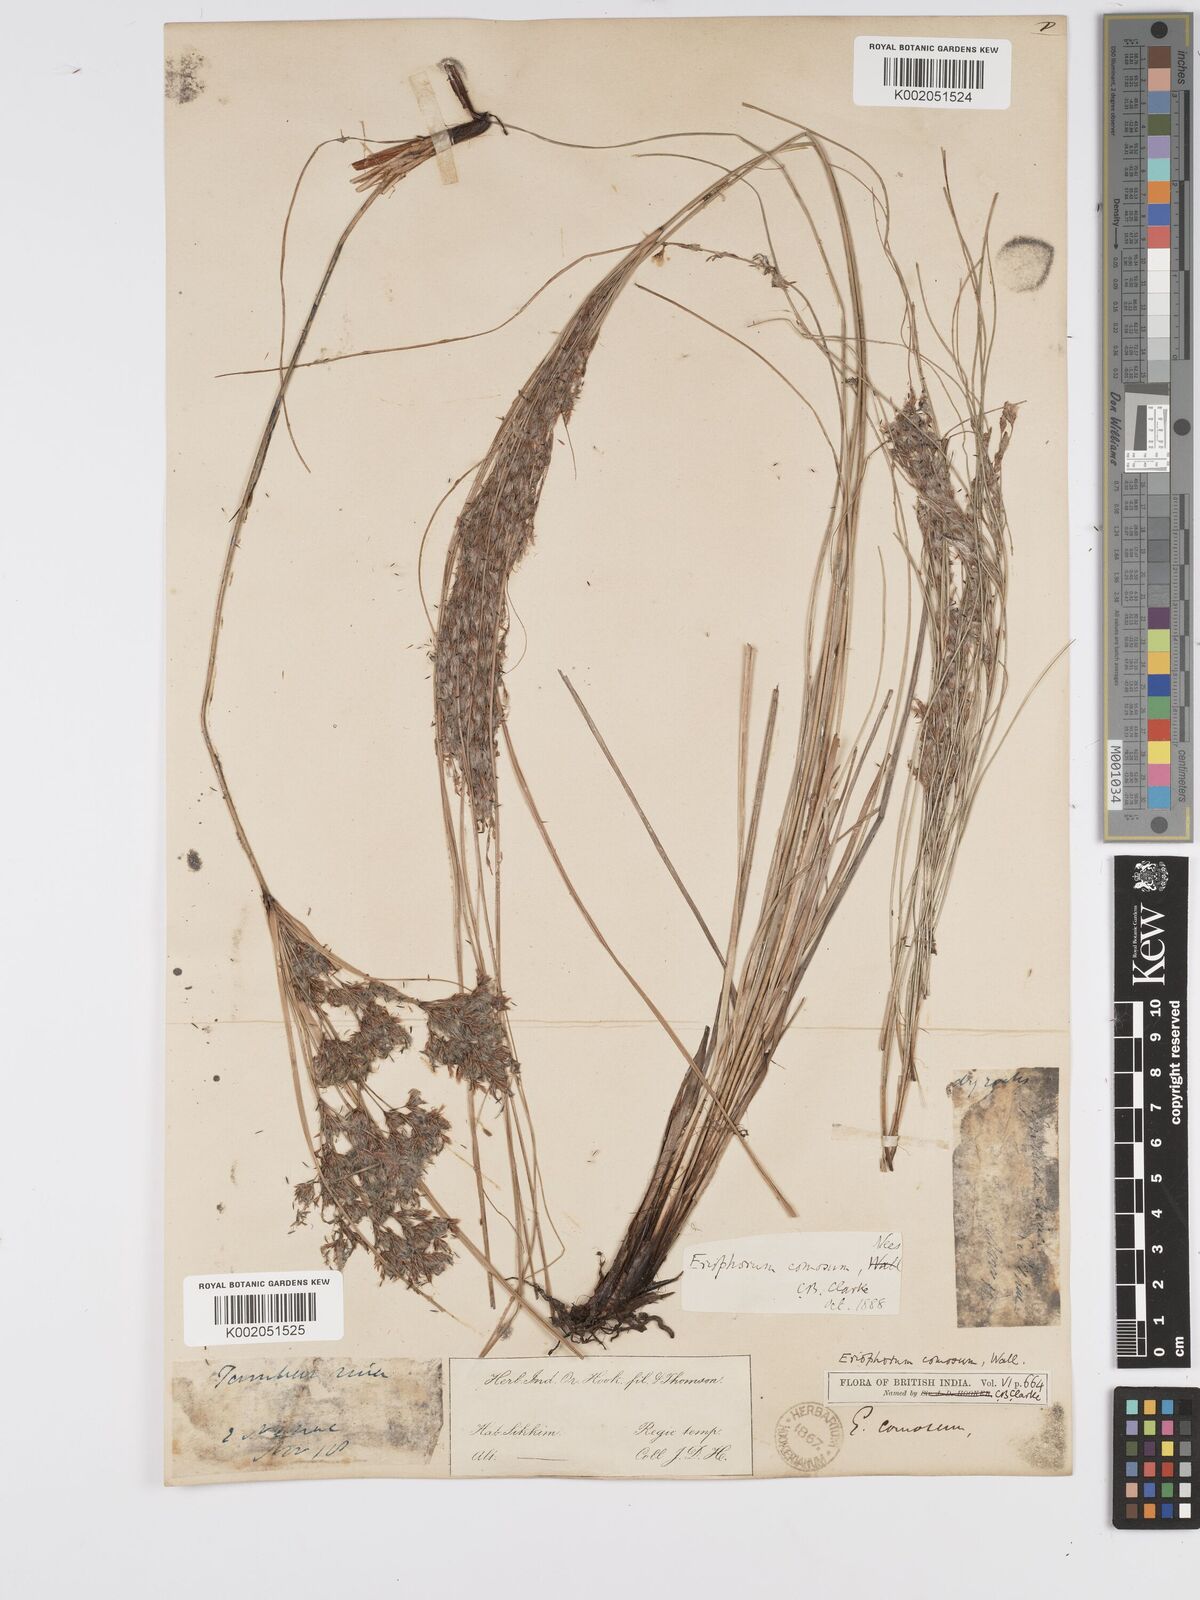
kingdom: Plantae
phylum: Tracheophyta
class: Liliopsida
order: Poales
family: Cyperaceae
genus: Erioscirpus
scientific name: Erioscirpus comosus
